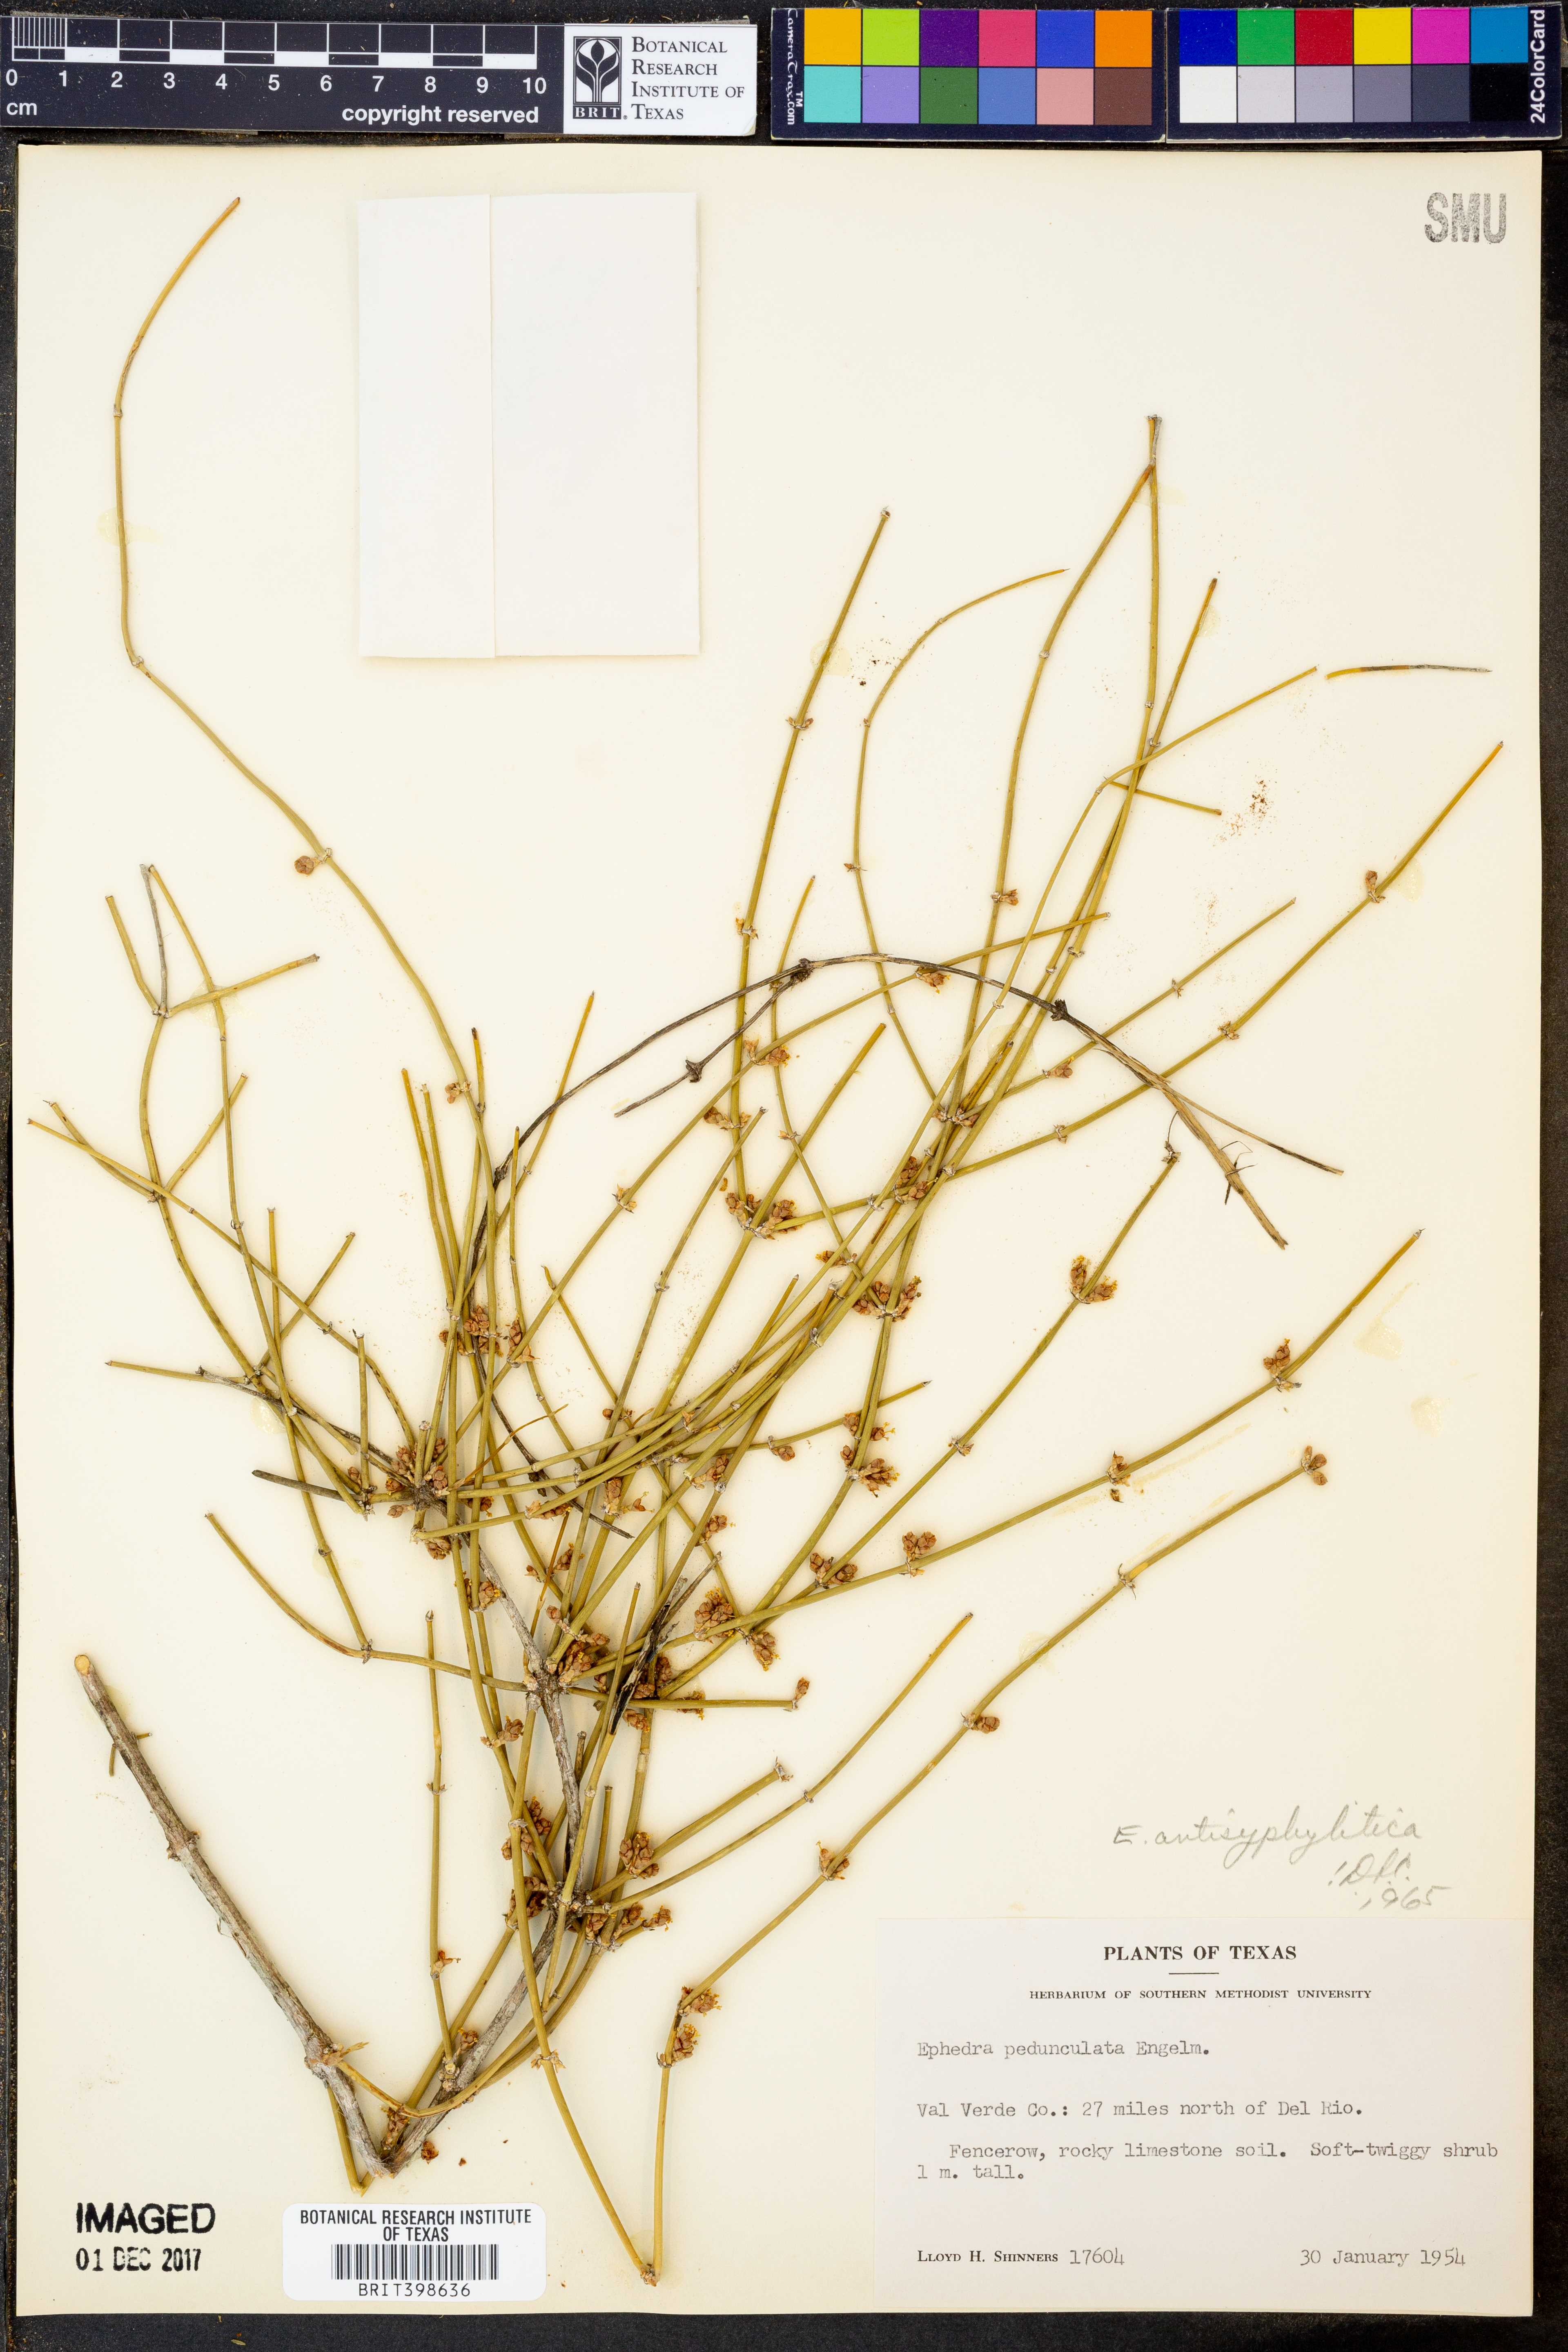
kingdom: Plantae
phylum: Tracheophyta
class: Gnetopsida
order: Ephedrales
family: Ephedraceae
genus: Ephedra
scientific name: Ephedra pedunculata
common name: Vine ephedra
